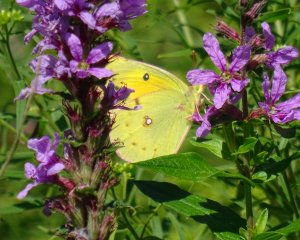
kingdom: Animalia
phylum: Arthropoda
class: Insecta
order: Lepidoptera
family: Pieridae
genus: Colias
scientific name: Colias eurytheme
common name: Orange Sulphur
